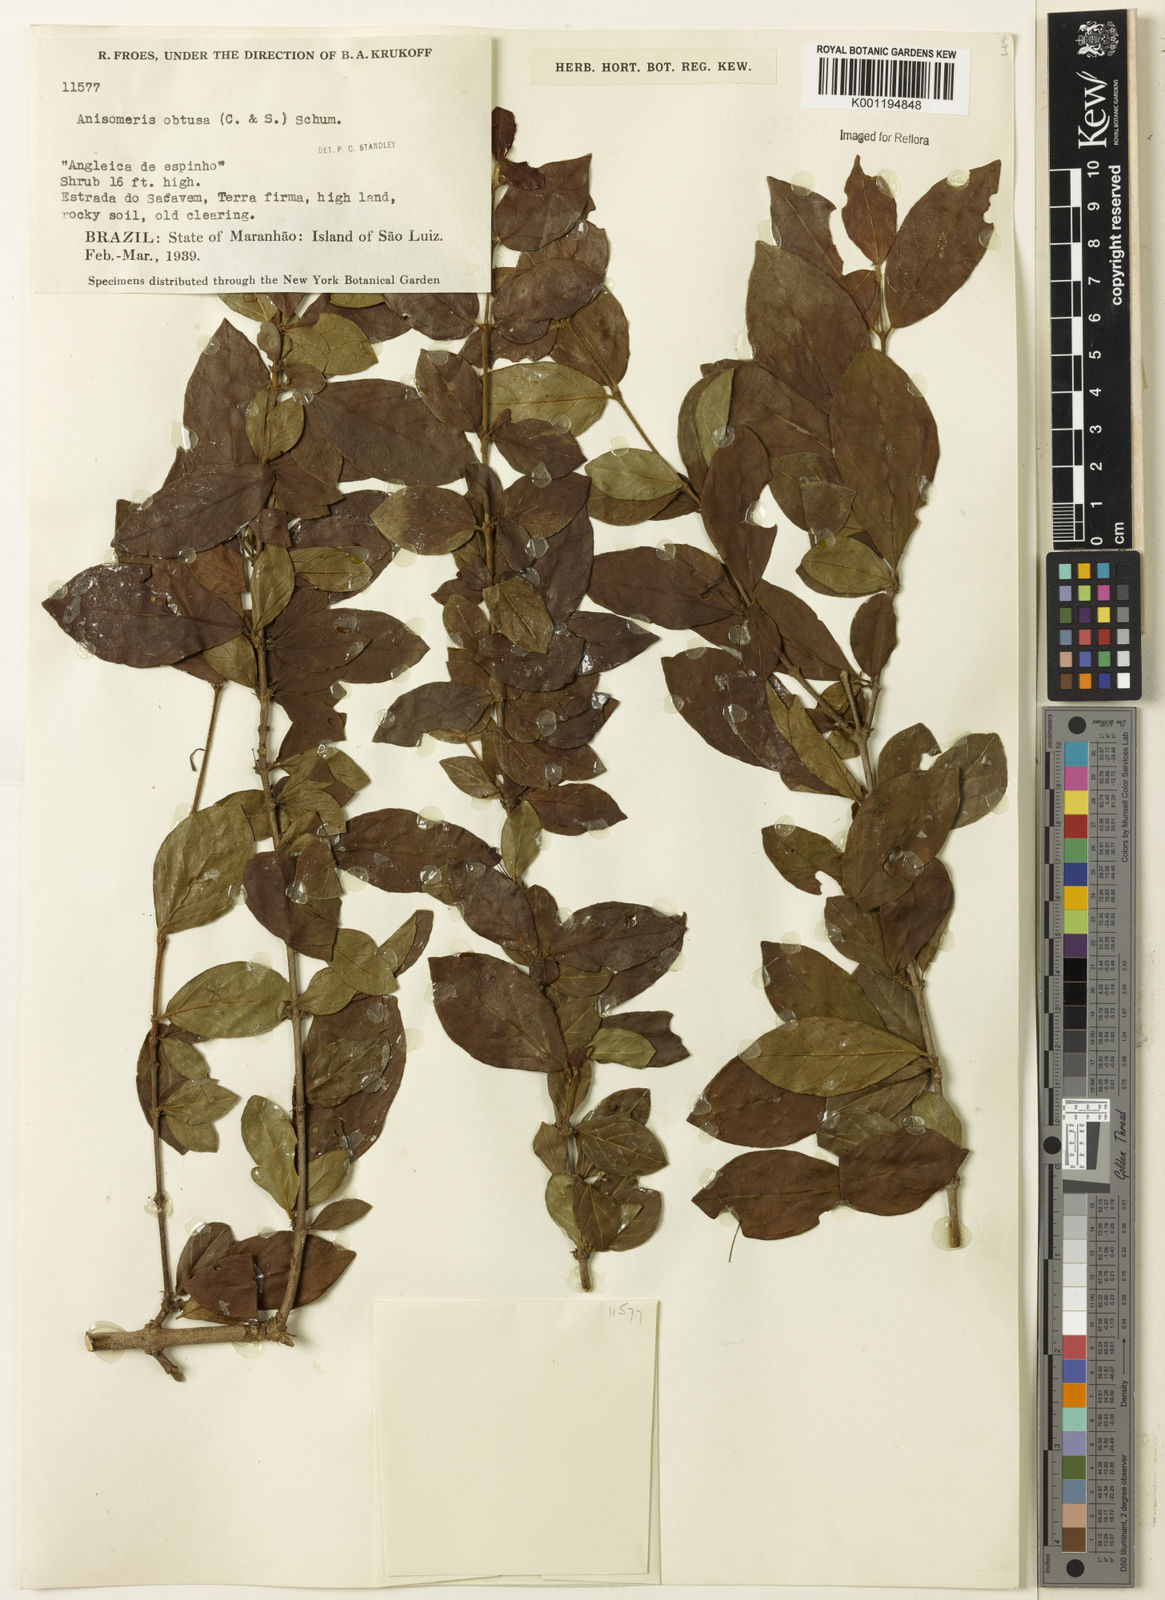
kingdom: Plantae
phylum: Tracheophyta
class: Magnoliopsida
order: Gentianales
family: Rubiaceae
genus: Chomelia
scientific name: Chomelia obtusa
